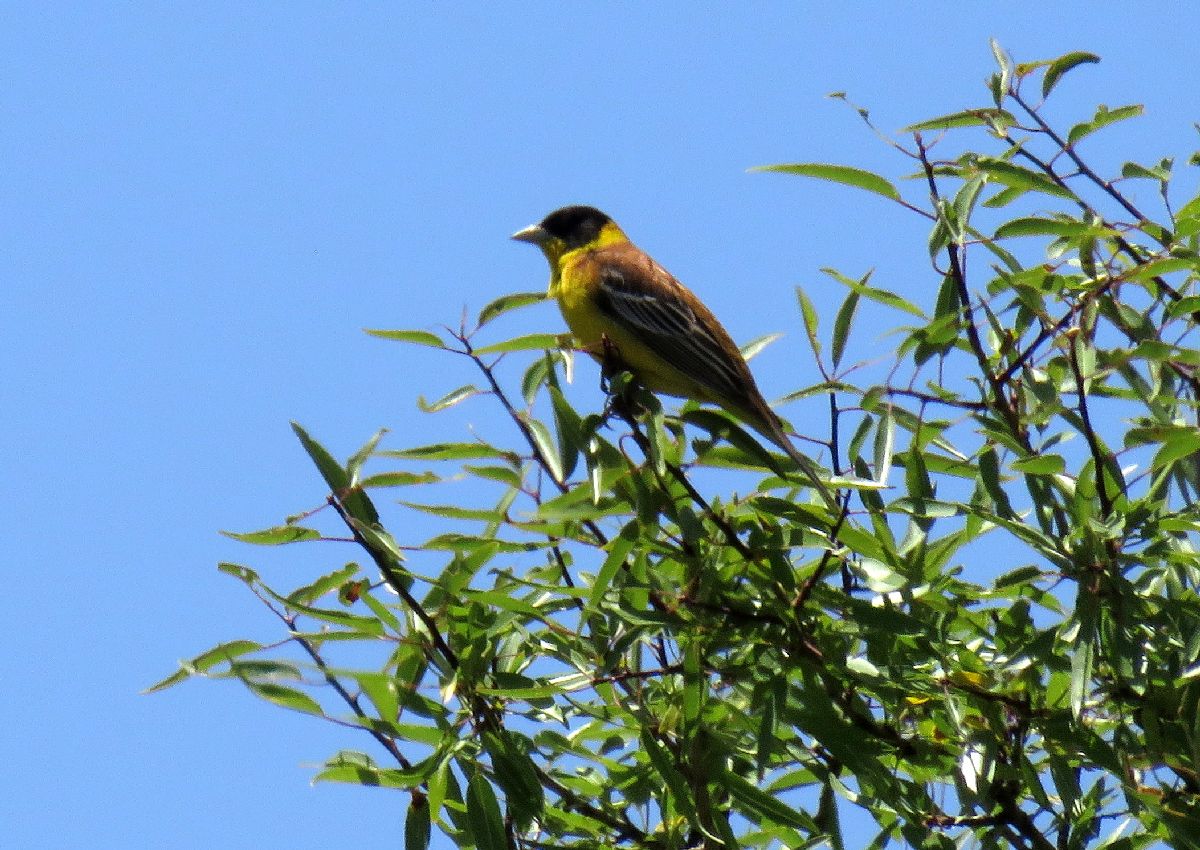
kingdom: Animalia
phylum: Chordata
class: Aves
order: Passeriformes
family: Emberizidae
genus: Emberiza
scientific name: Emberiza melanocephala
